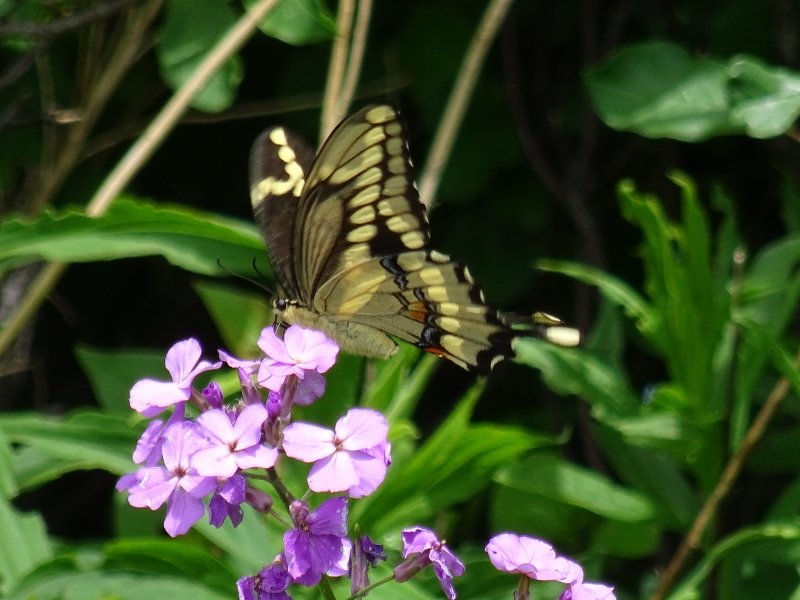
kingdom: Animalia
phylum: Arthropoda
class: Insecta
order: Lepidoptera
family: Papilionidae
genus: Papilio
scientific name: Papilio cresphontes
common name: Eastern Giant Swallowtail
